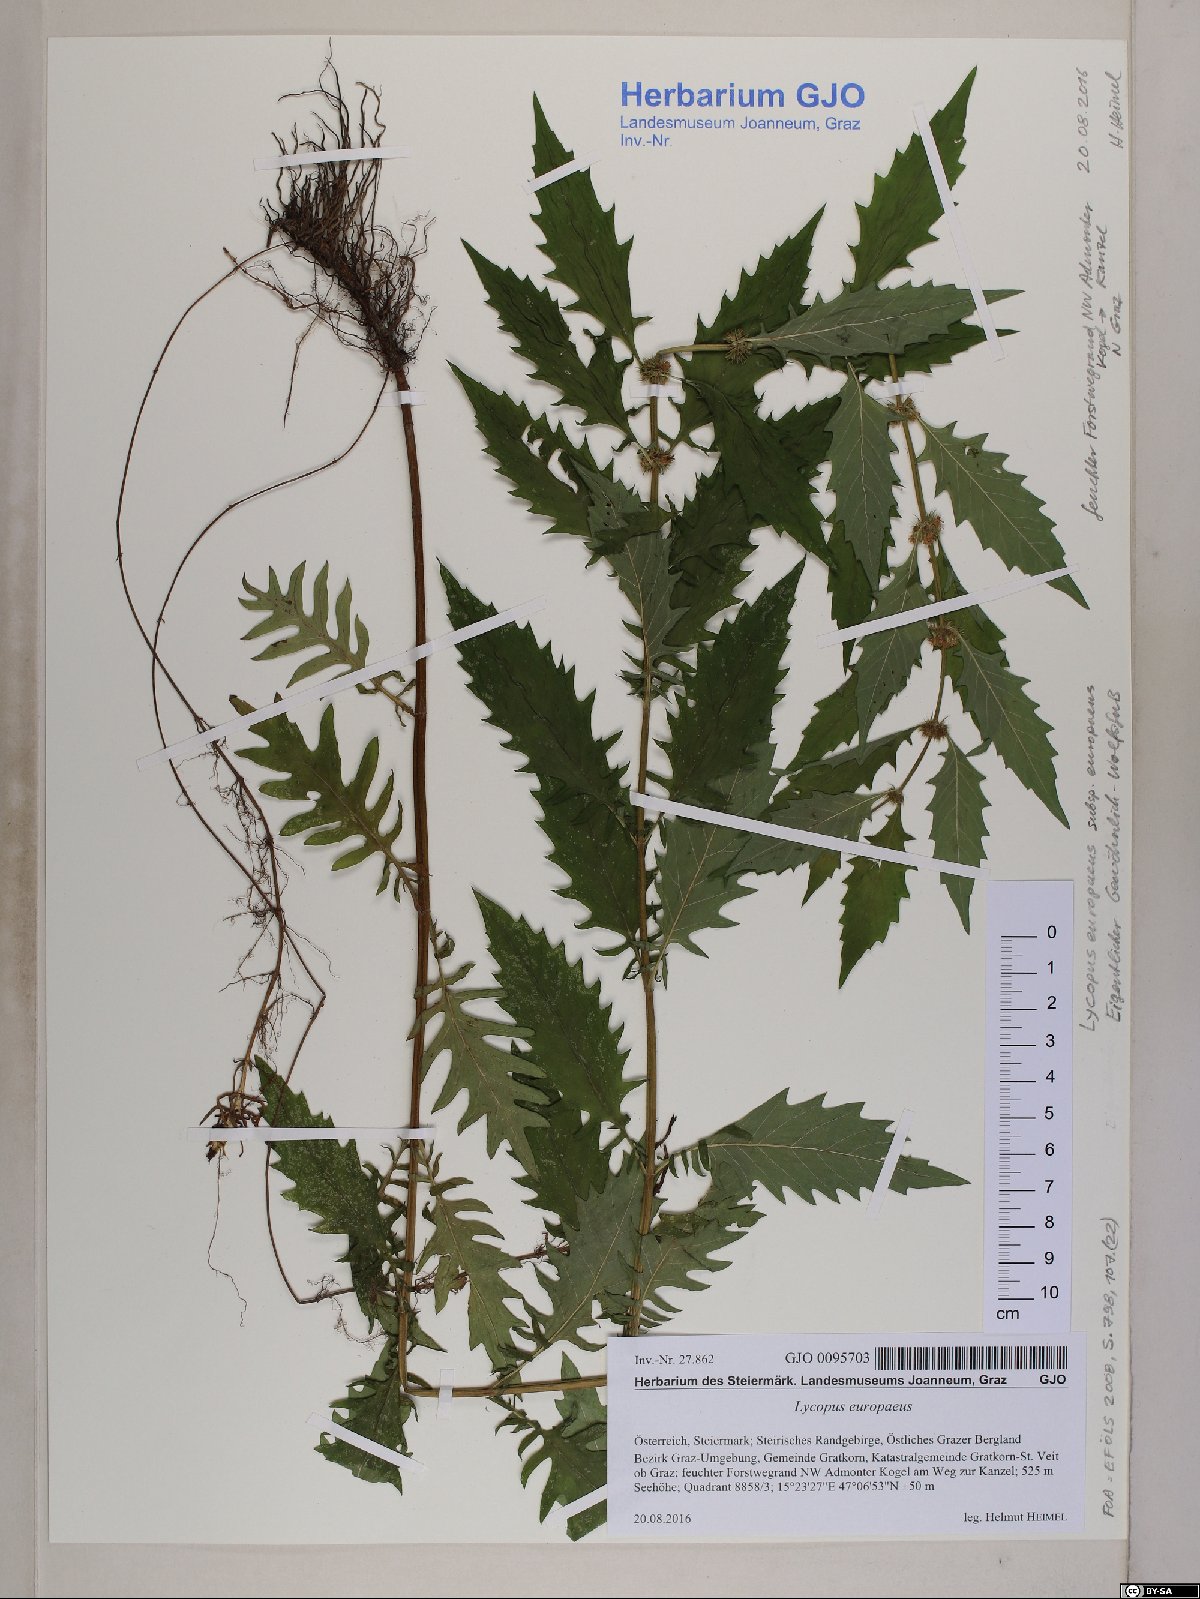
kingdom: Plantae
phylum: Tracheophyta
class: Magnoliopsida
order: Lamiales
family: Lamiaceae
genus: Lycopus
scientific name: Lycopus europaeus
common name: European bugleweed
